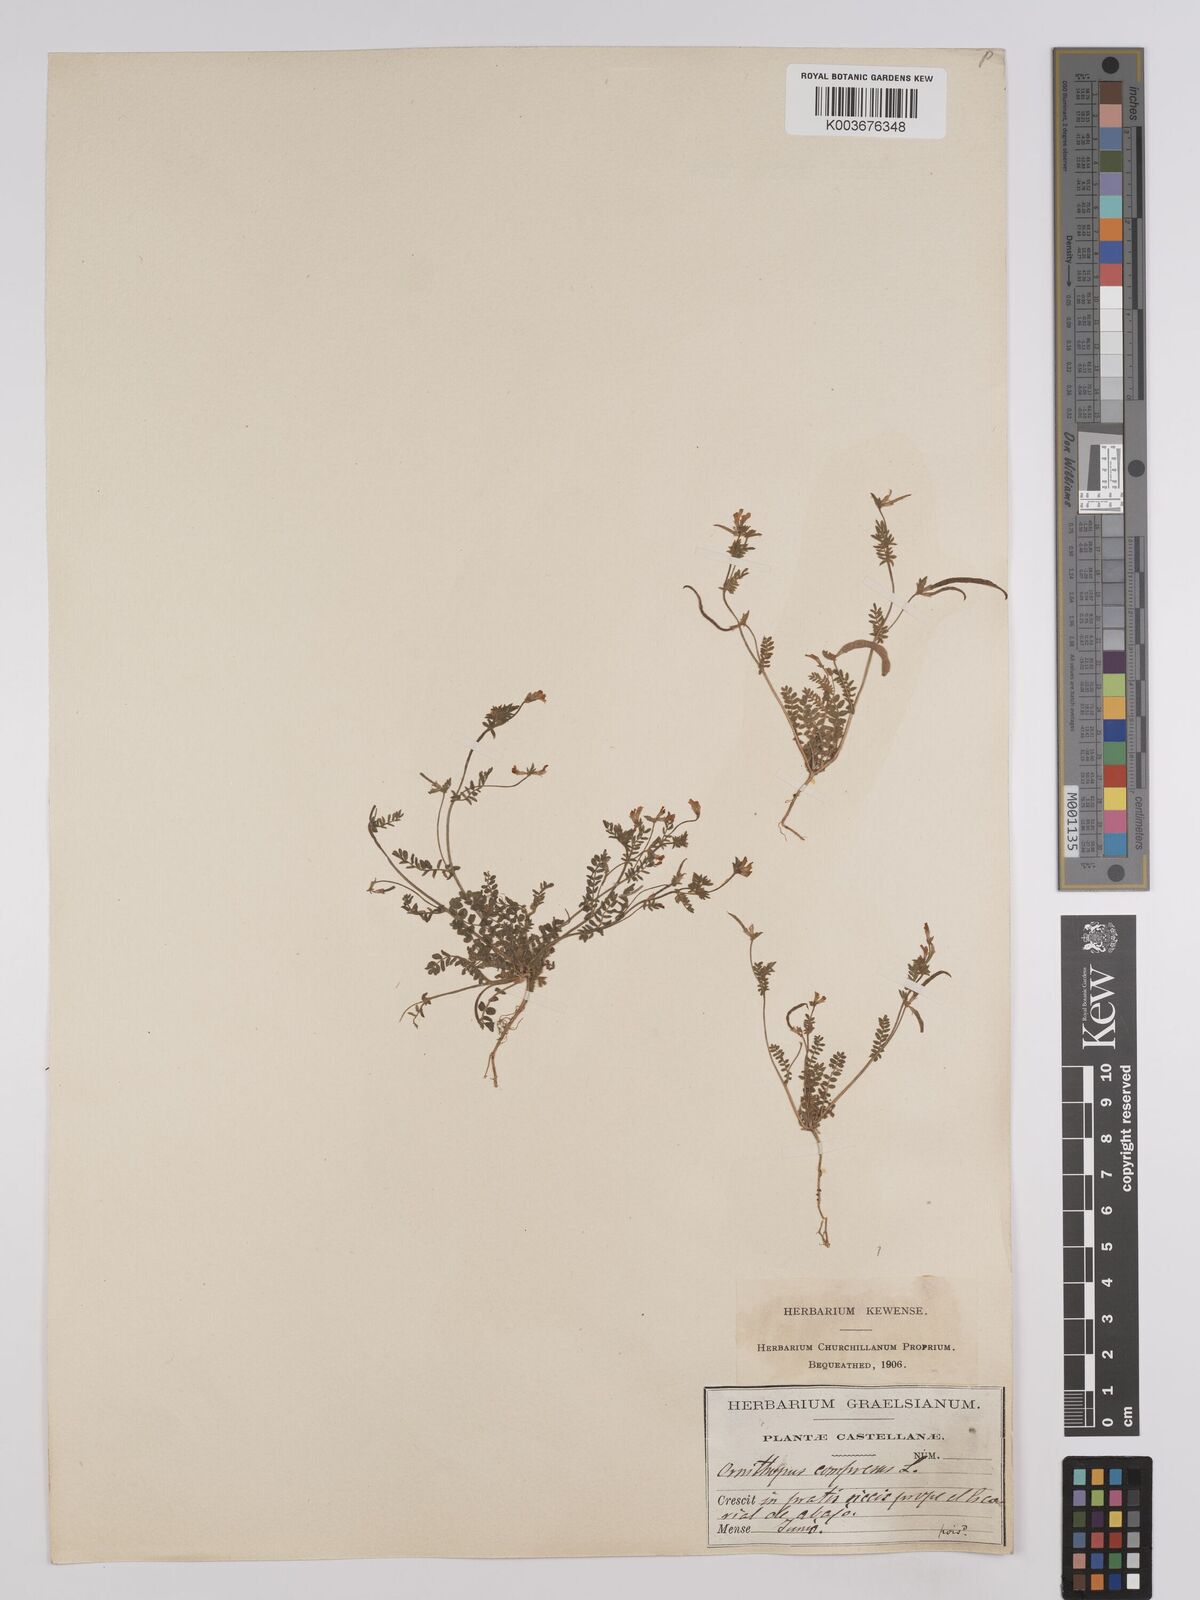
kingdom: Plantae
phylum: Tracheophyta
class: Magnoliopsida
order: Fabales
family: Fabaceae
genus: Ornithopus
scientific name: Ornithopus compressus
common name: Yellow serradella
